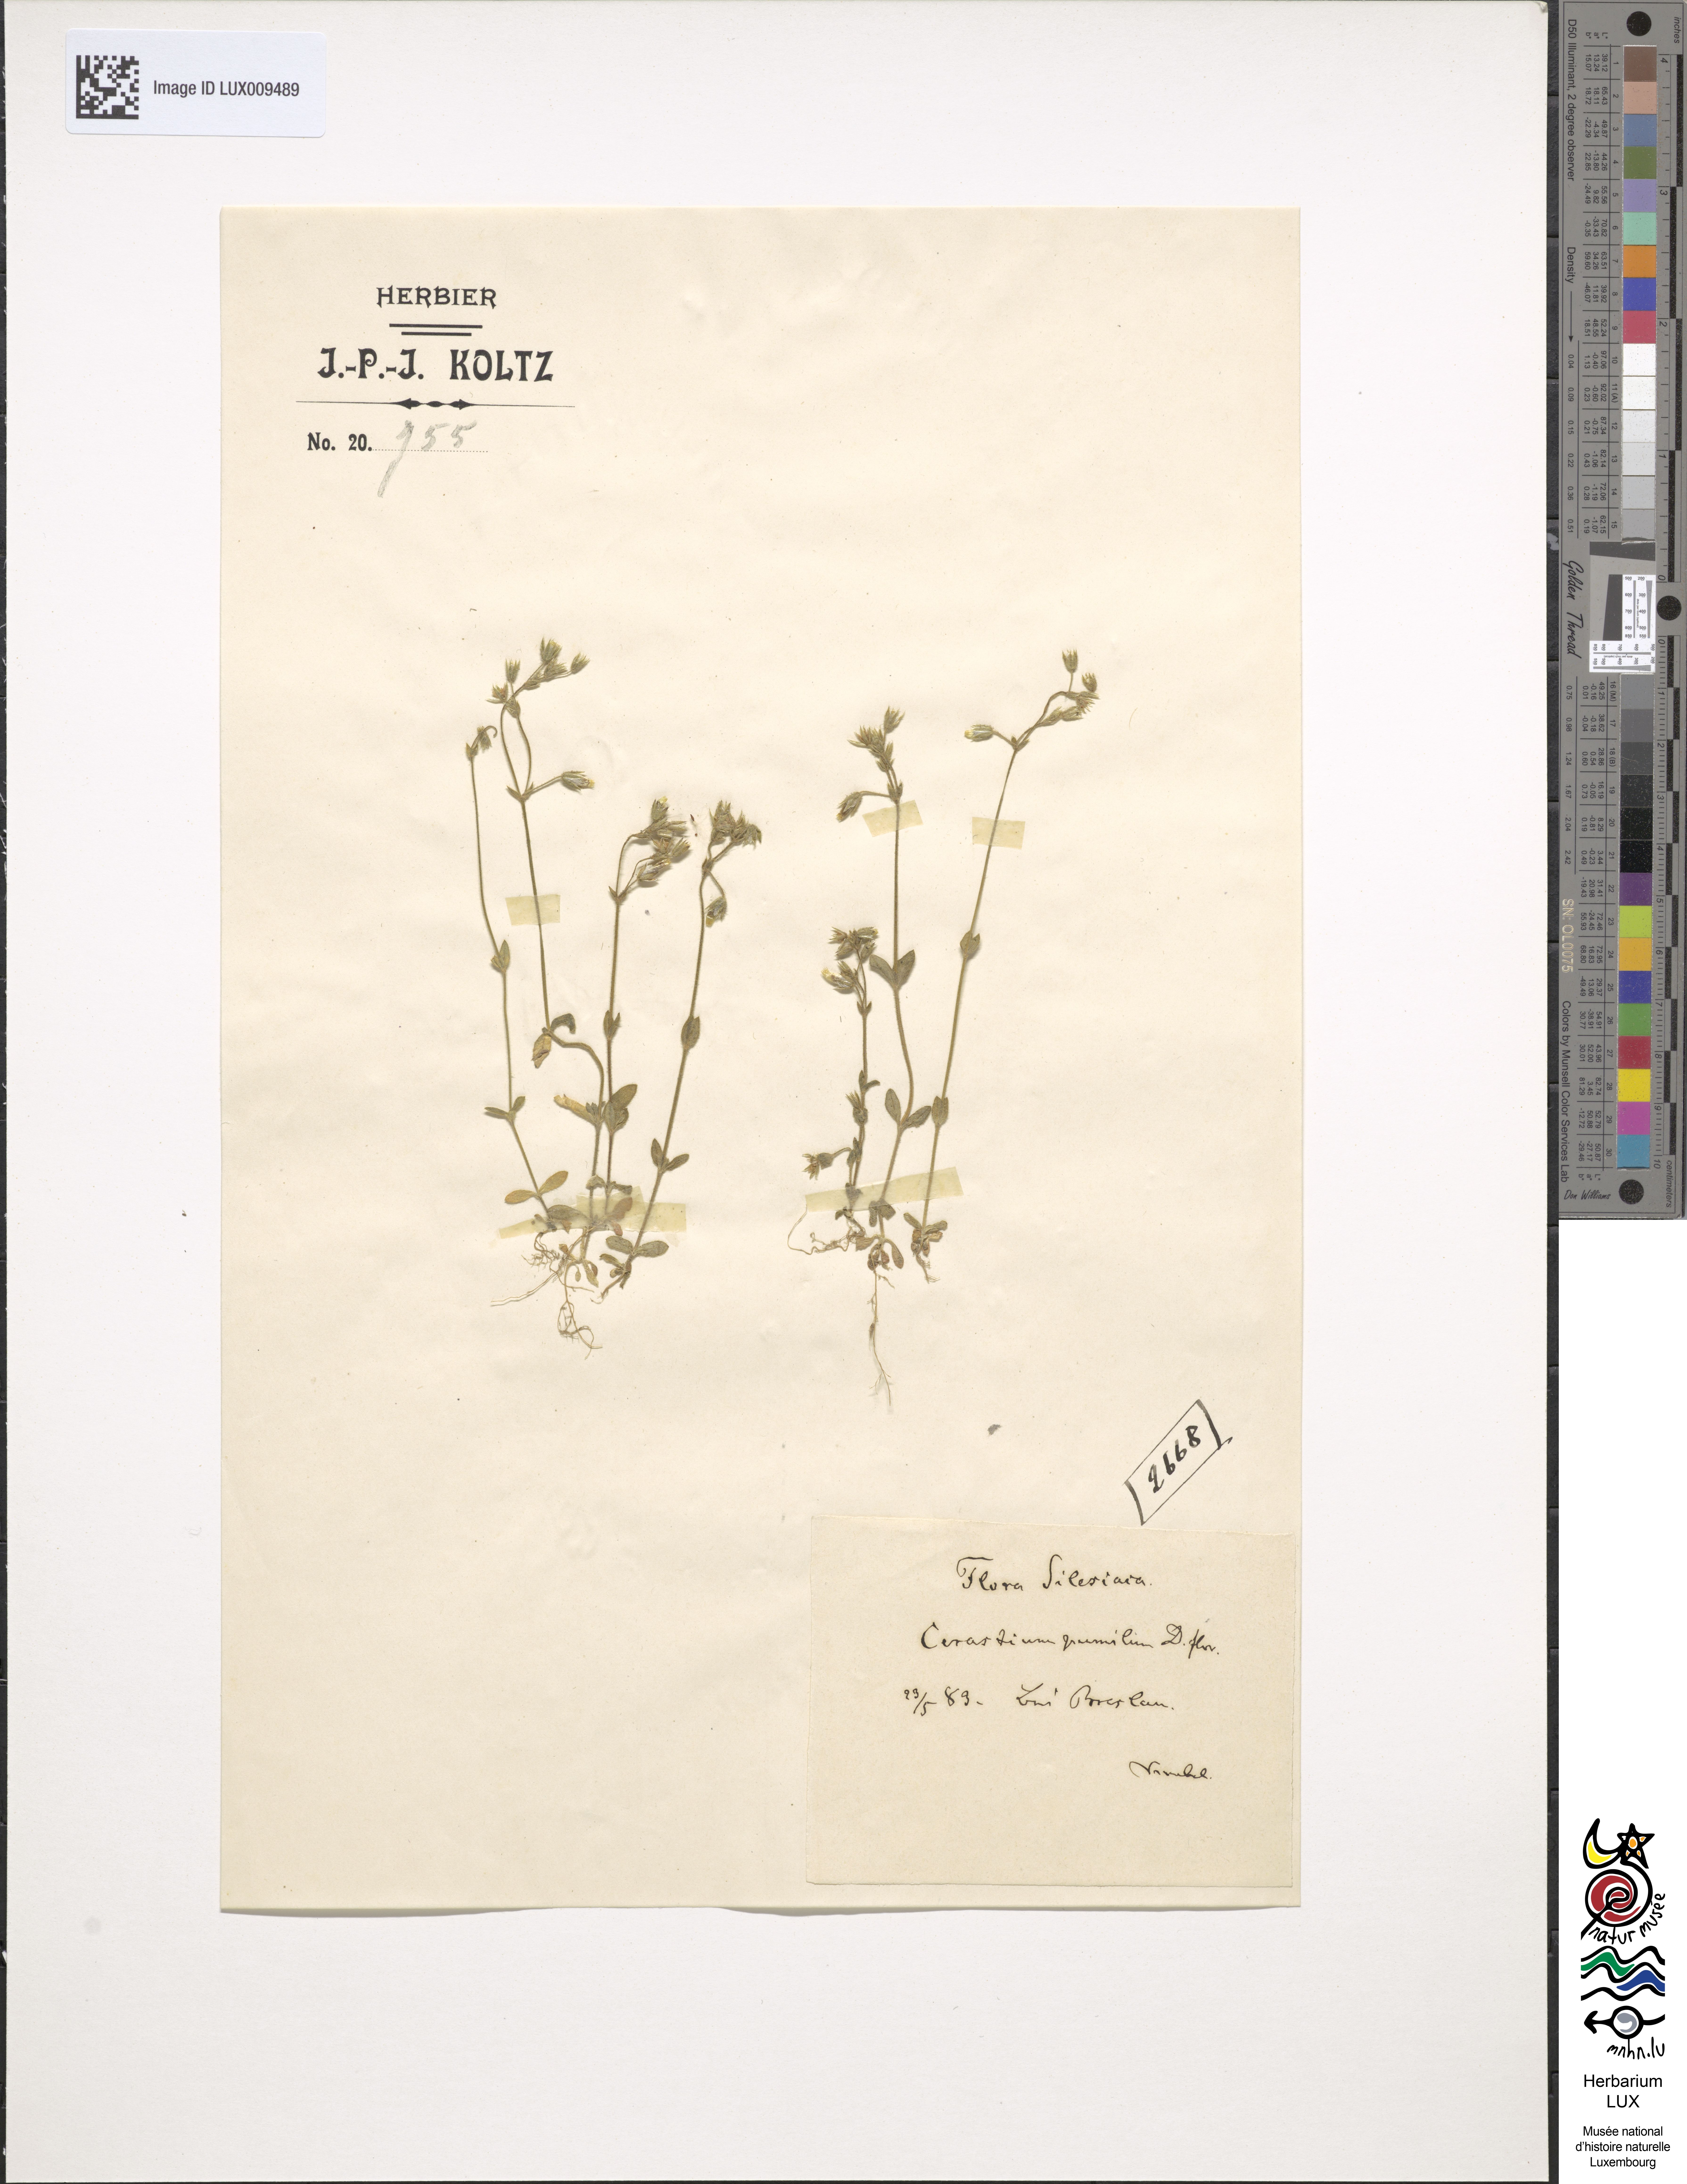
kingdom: Plantae
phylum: Tracheophyta
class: Magnoliopsida
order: Caryophyllales
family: Caryophyllaceae
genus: Cerastium
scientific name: Cerastium pumilum
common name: Dwarf mouse-ear
